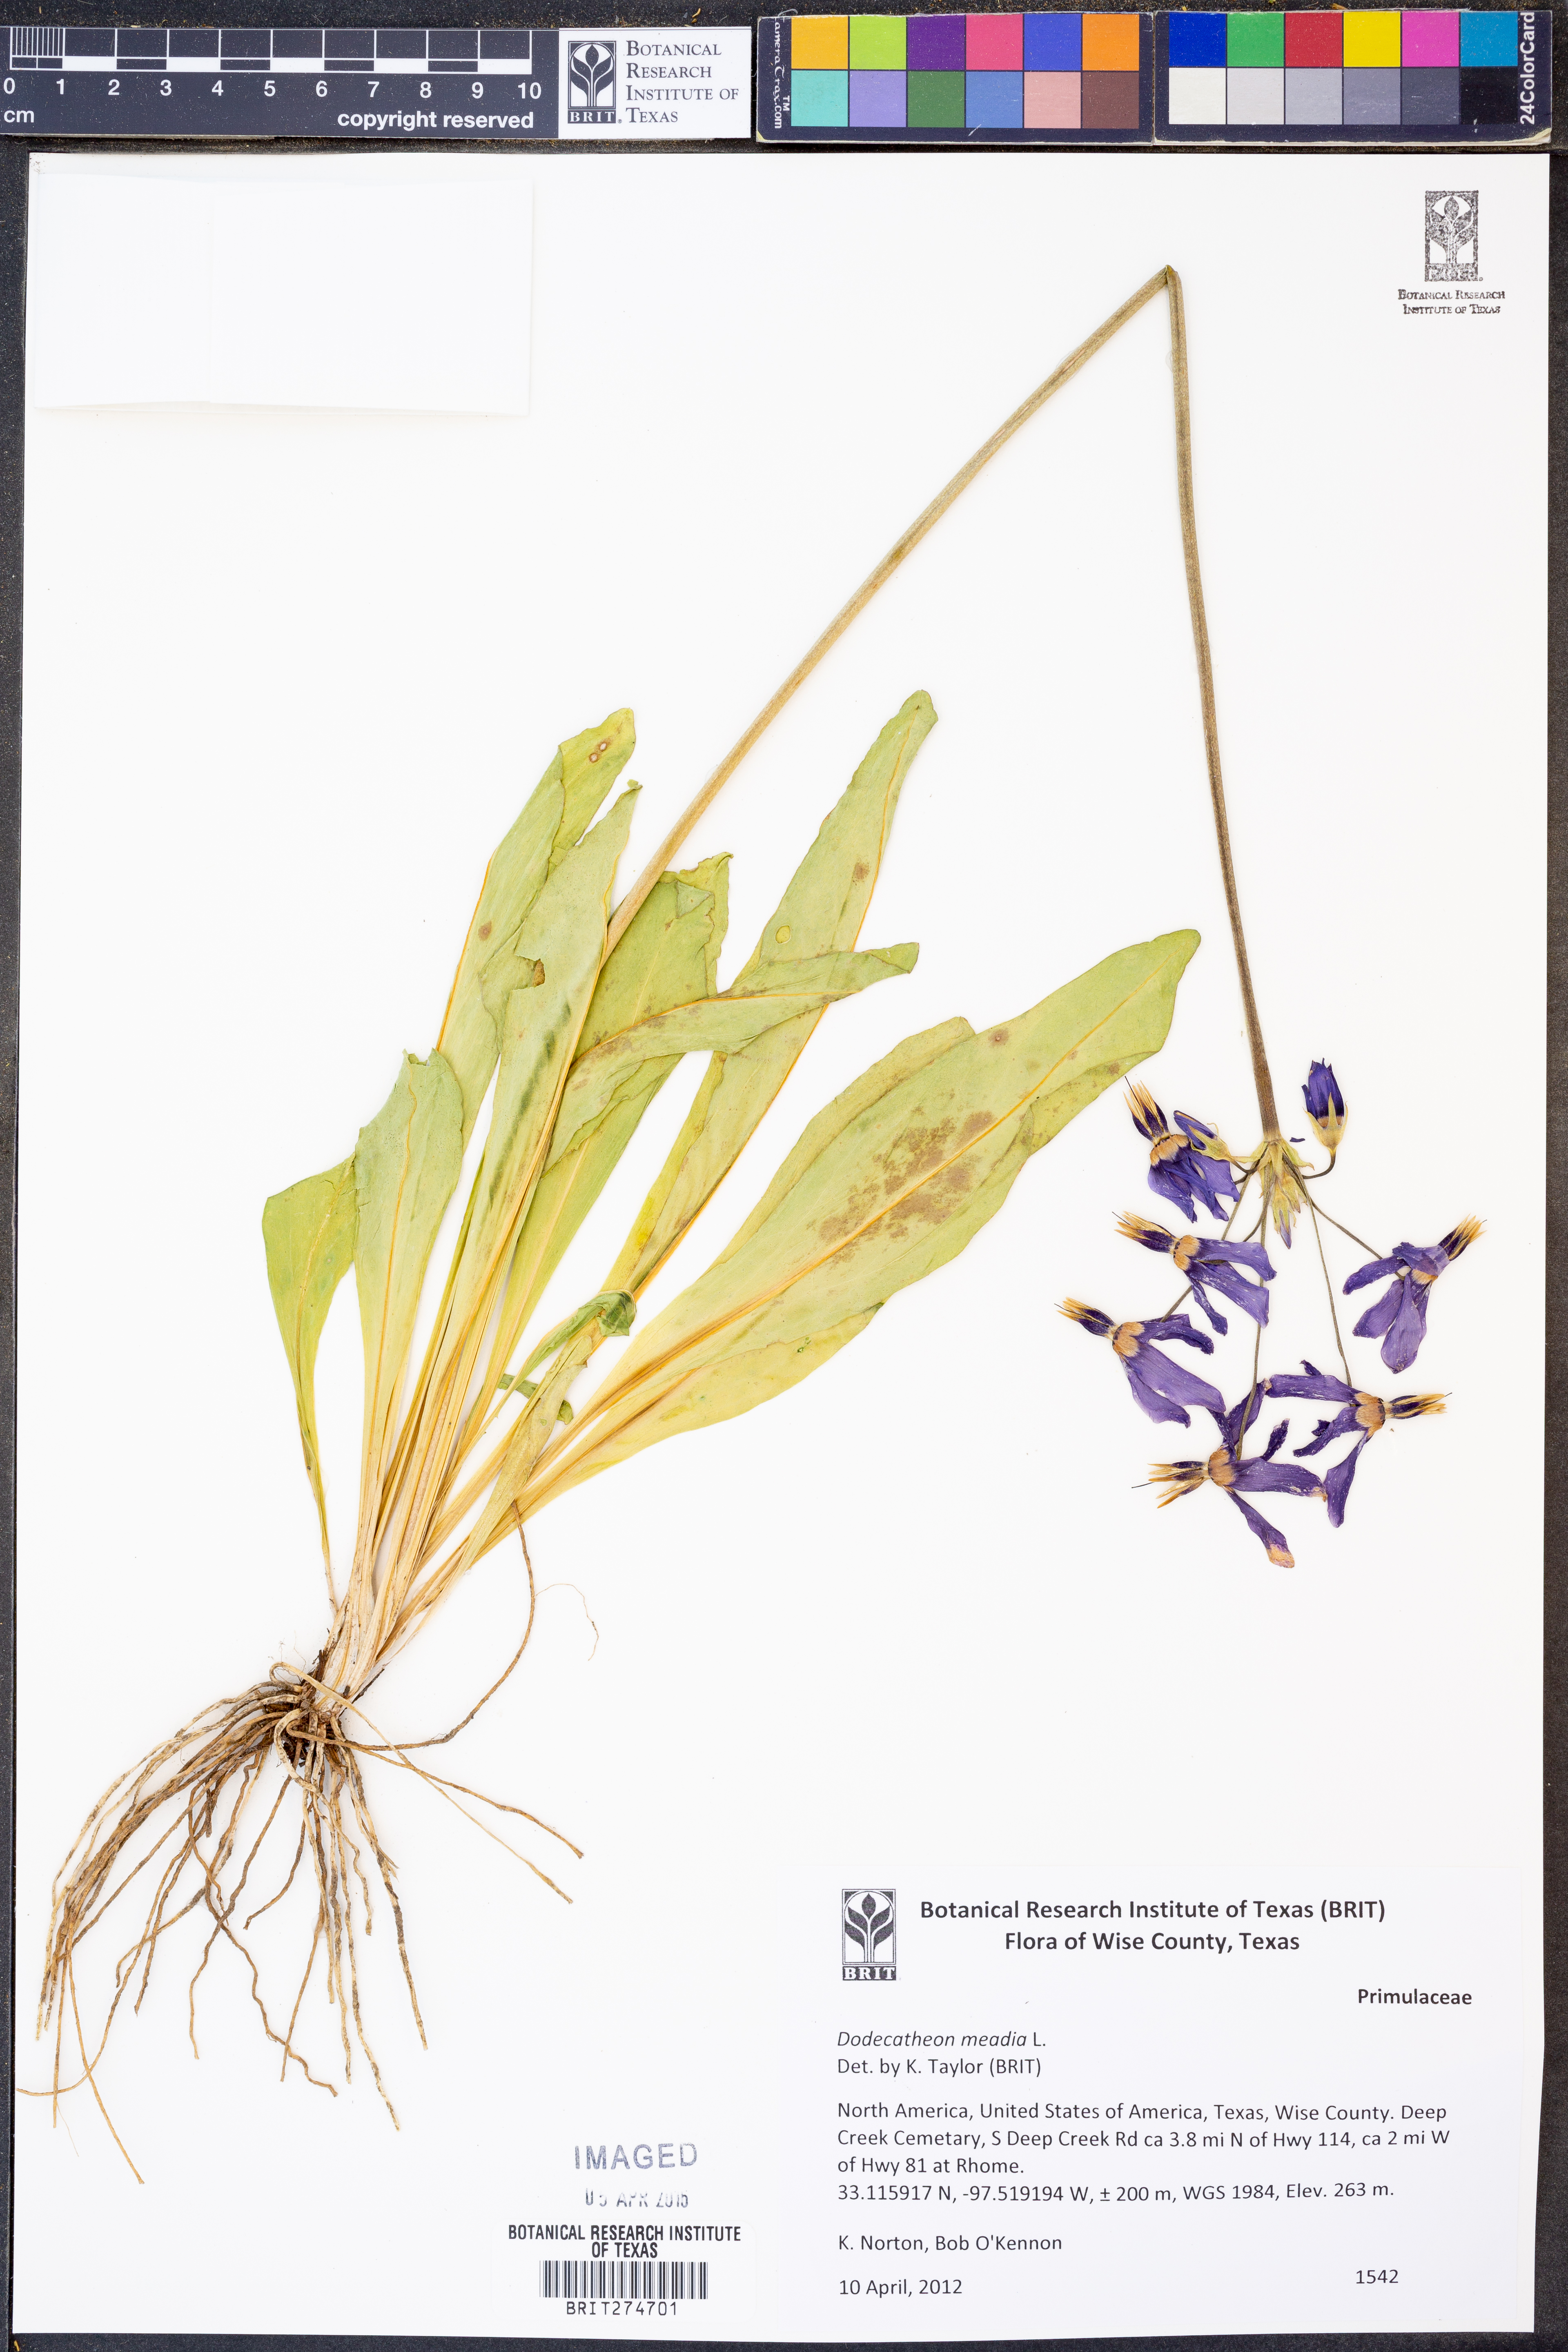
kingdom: Plantae
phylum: Tracheophyta
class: Magnoliopsida
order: Ericales
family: Primulaceae
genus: Dodecatheon
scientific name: Dodecatheon meadia
